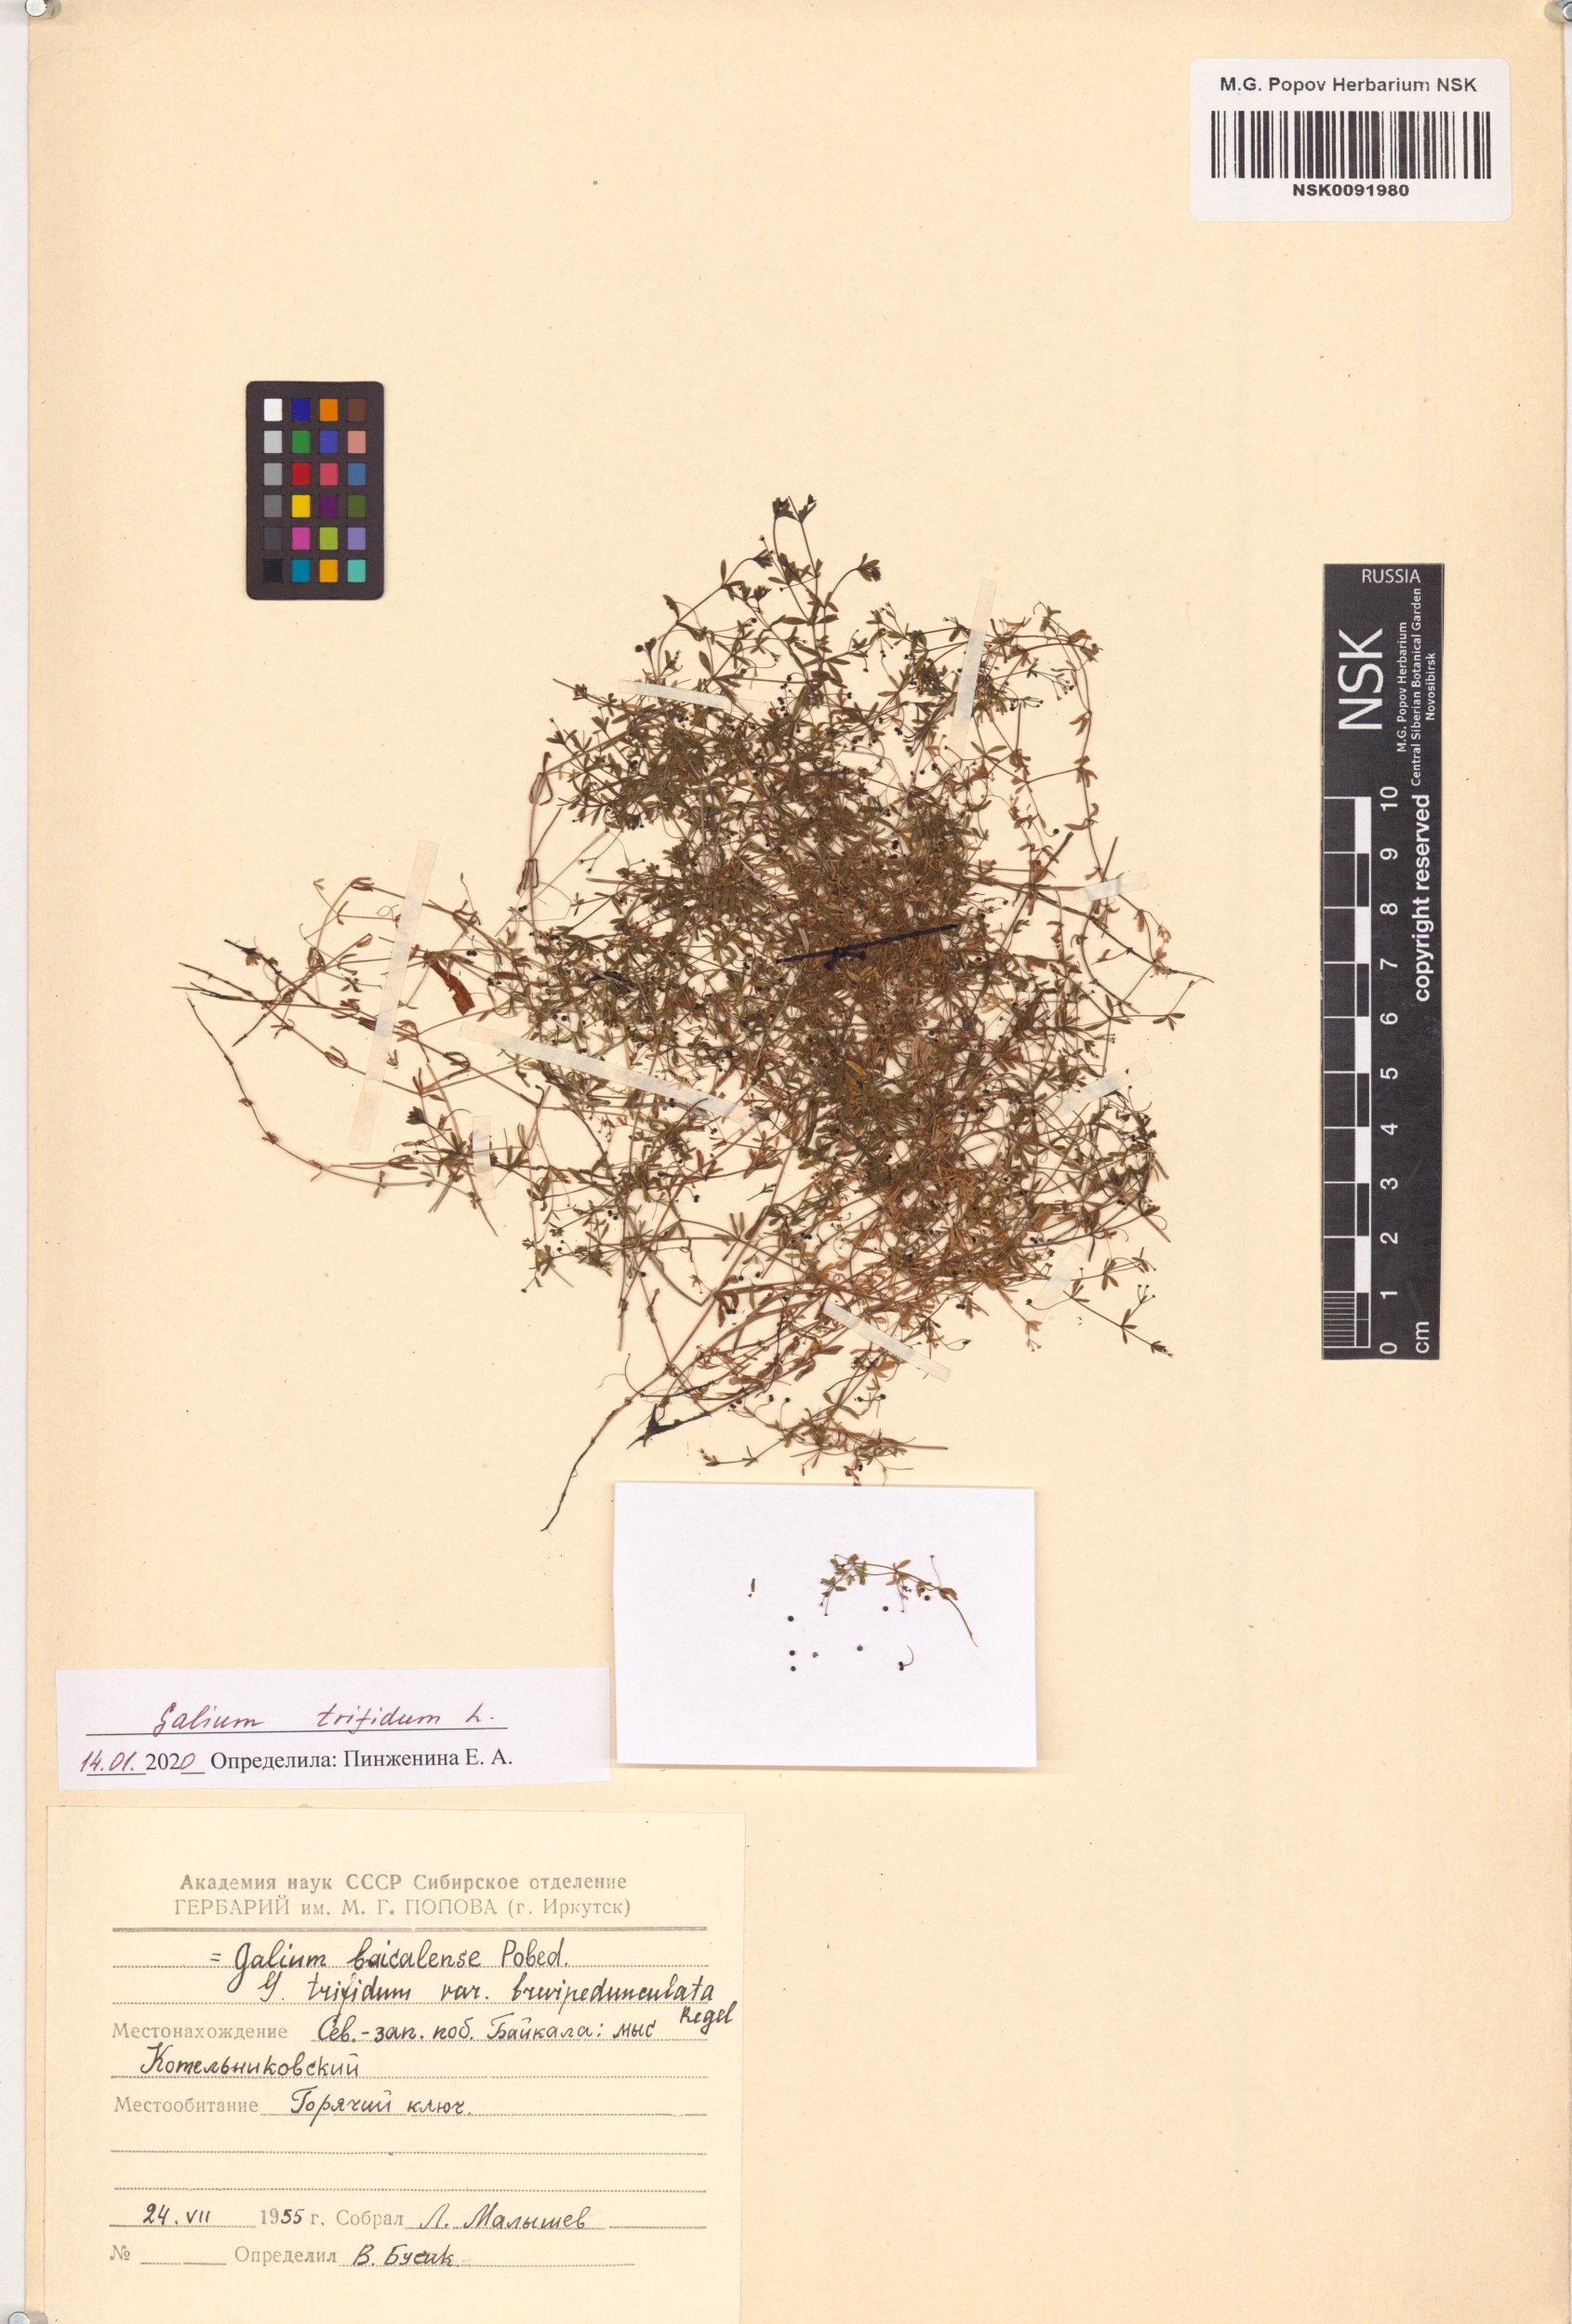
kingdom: Plantae
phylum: Tracheophyta
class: Magnoliopsida
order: Gentianales
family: Rubiaceae
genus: Galium
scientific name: Galium trifidum
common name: Small bedstraw
